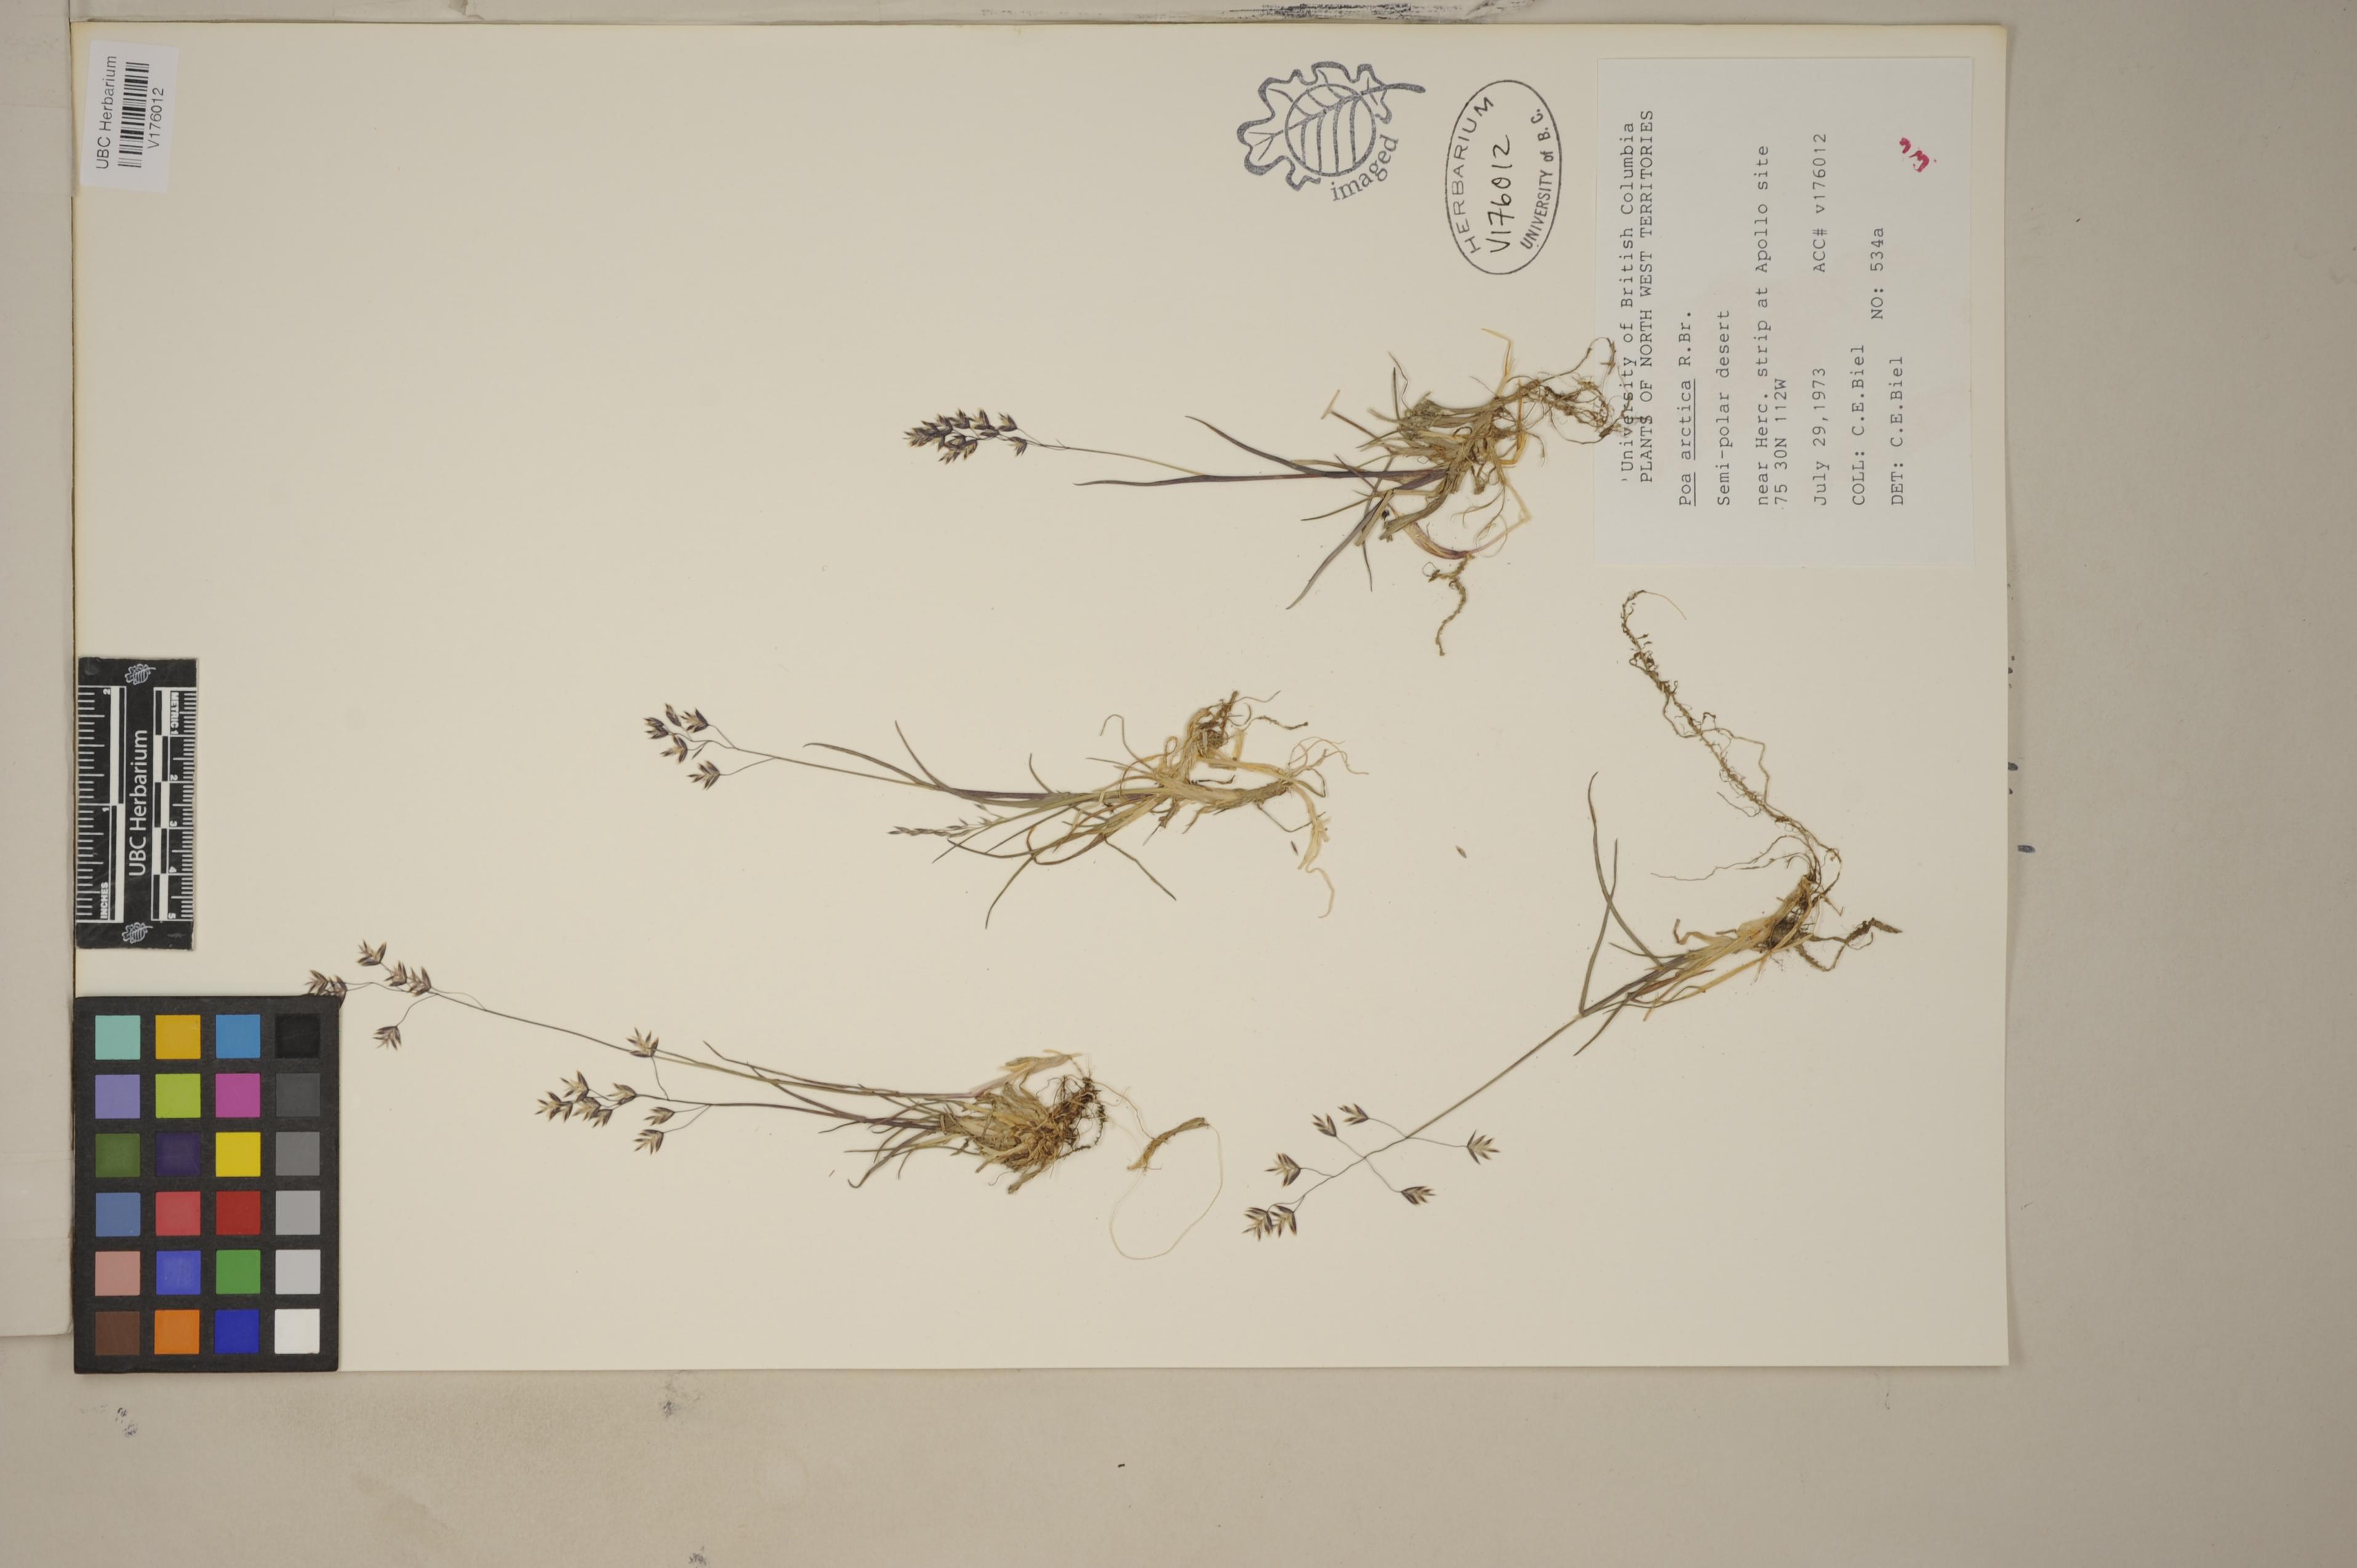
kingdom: Plantae
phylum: Tracheophyta
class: Liliopsida
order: Poales
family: Poaceae
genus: Poa
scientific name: Poa tolmatchewii
